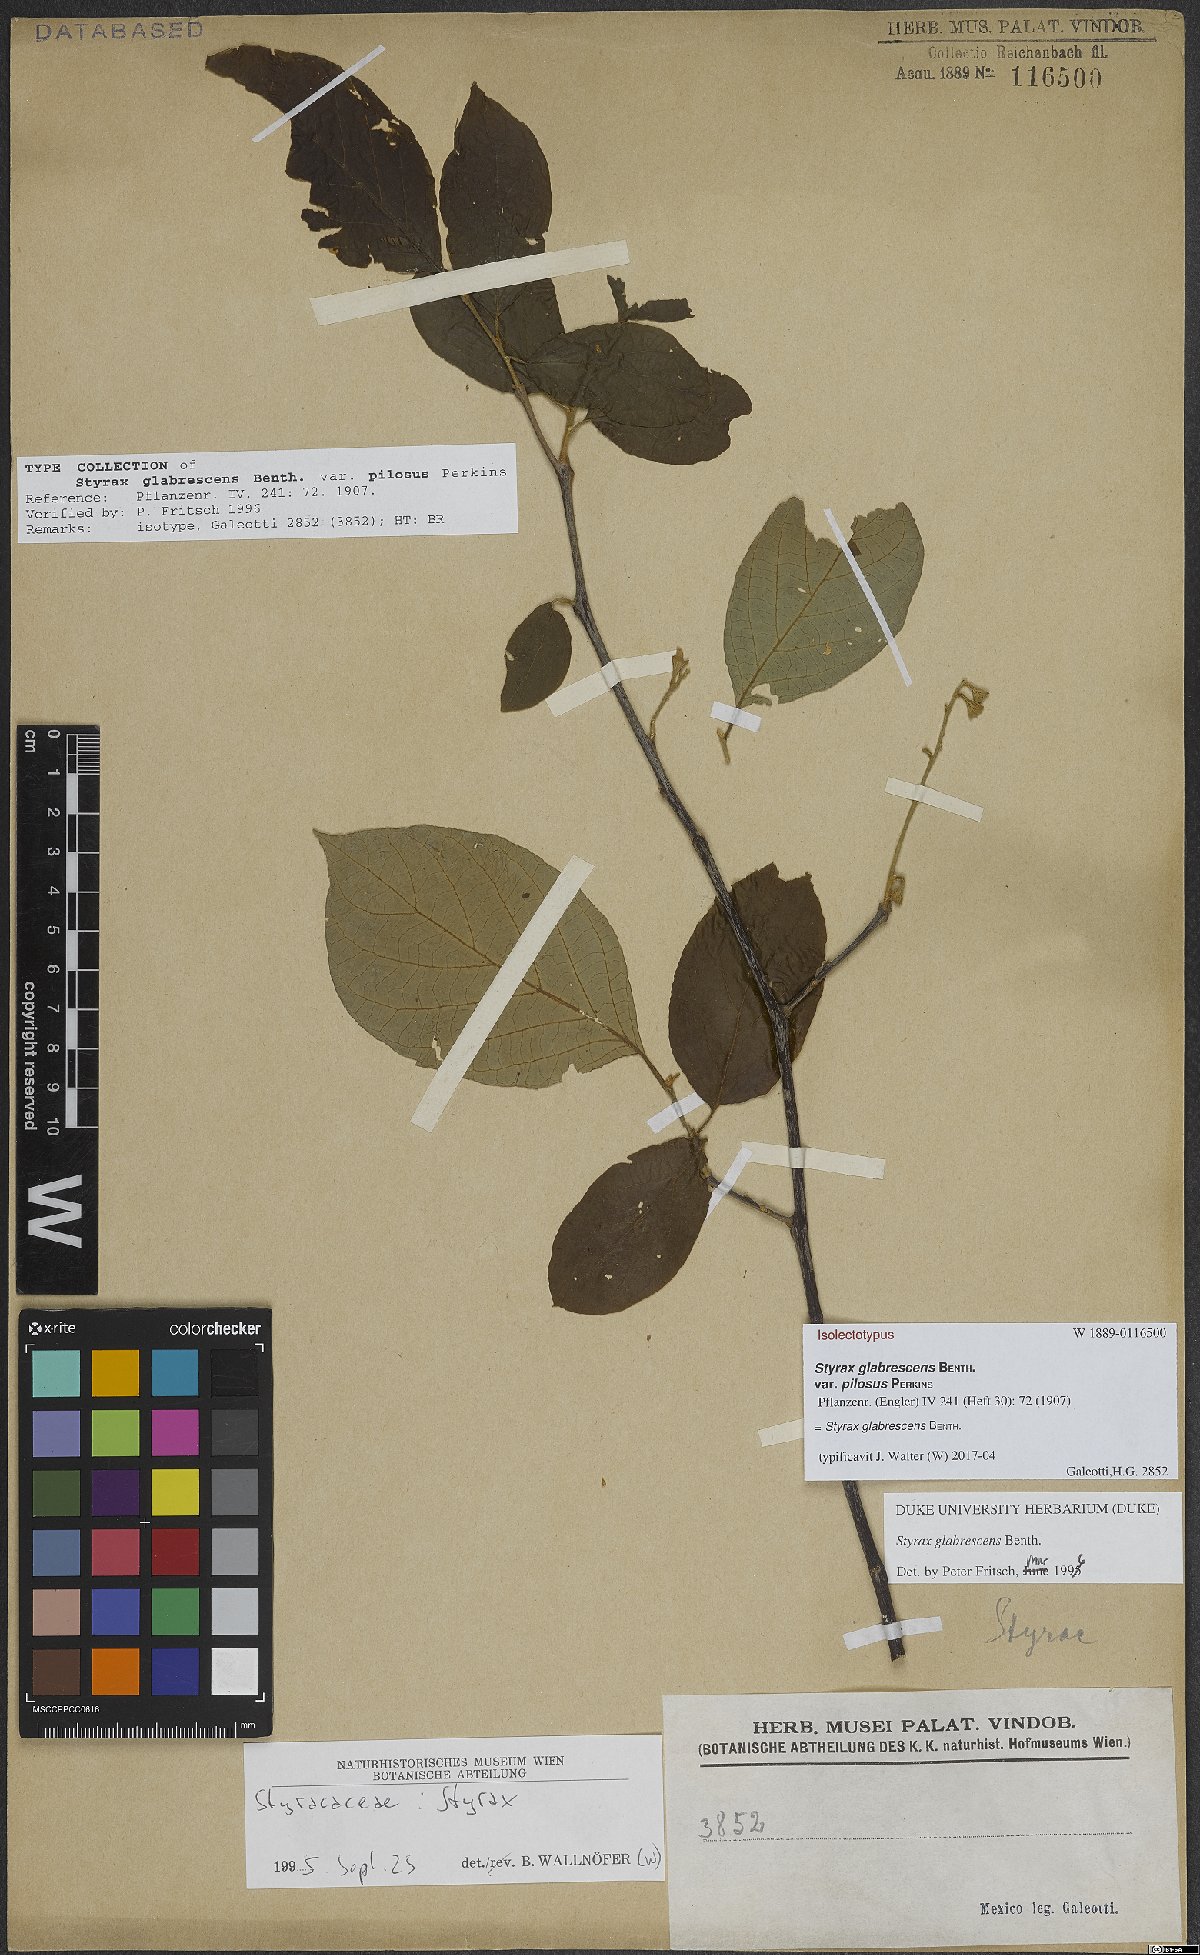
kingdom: Plantae
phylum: Tracheophyta
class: Magnoliopsida
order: Ericales
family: Styracaceae
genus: Styrax
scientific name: Styrax glabrescens
